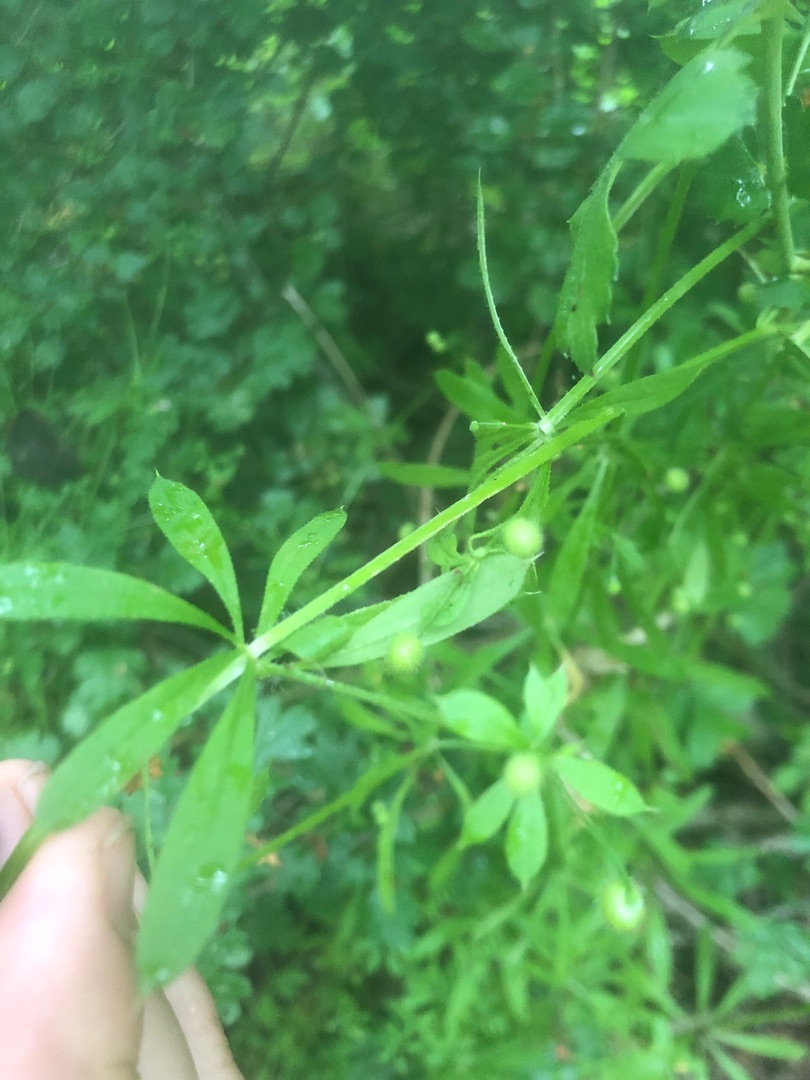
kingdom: Plantae
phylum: Tracheophyta
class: Magnoliopsida
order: Gentianales
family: Rubiaceae
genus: Galium
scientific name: Galium aparine
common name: Burre-snerre
